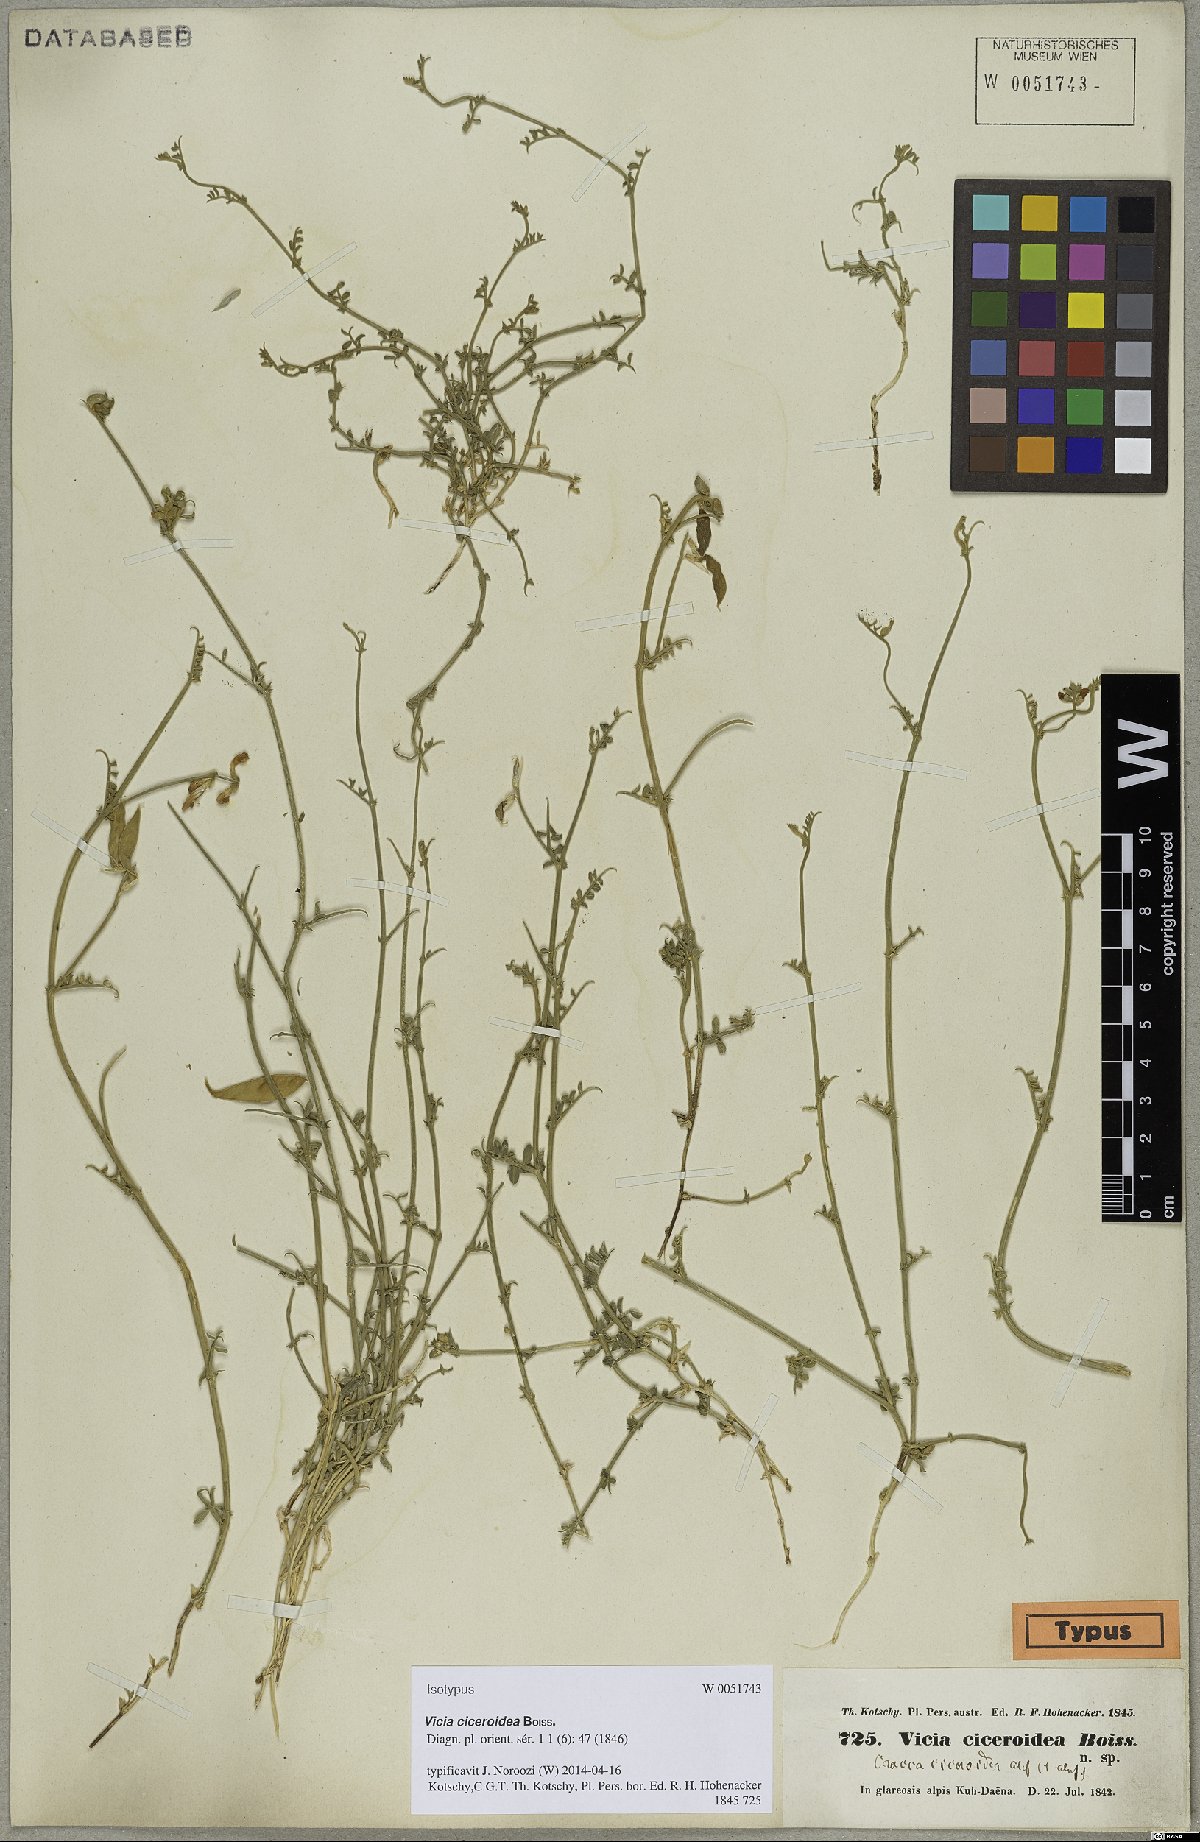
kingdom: Plantae
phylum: Tracheophyta
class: Magnoliopsida
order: Fabales
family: Fabaceae
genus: Vicia
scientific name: Vicia ciceroidea
